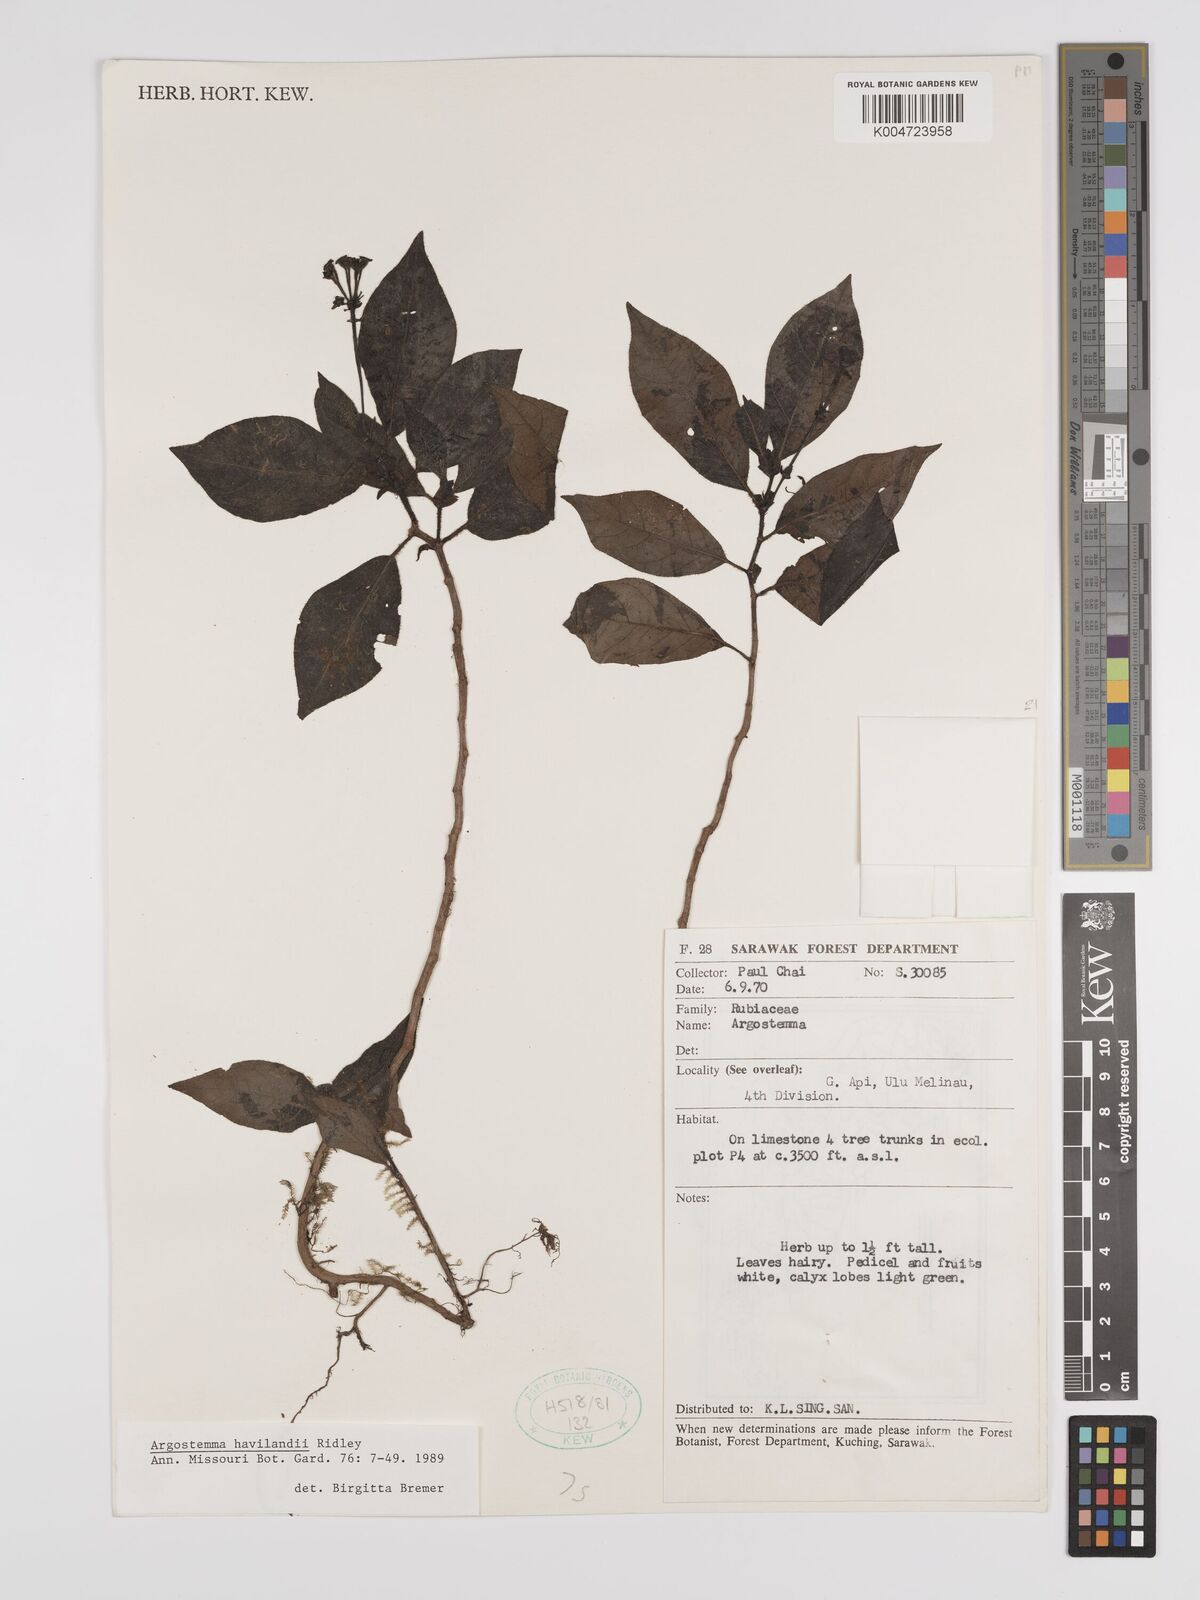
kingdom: Plantae
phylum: Tracheophyta
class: Magnoliopsida
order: Gentianales
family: Rubiaceae
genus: Argostemma
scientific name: Argostemma havilandii
